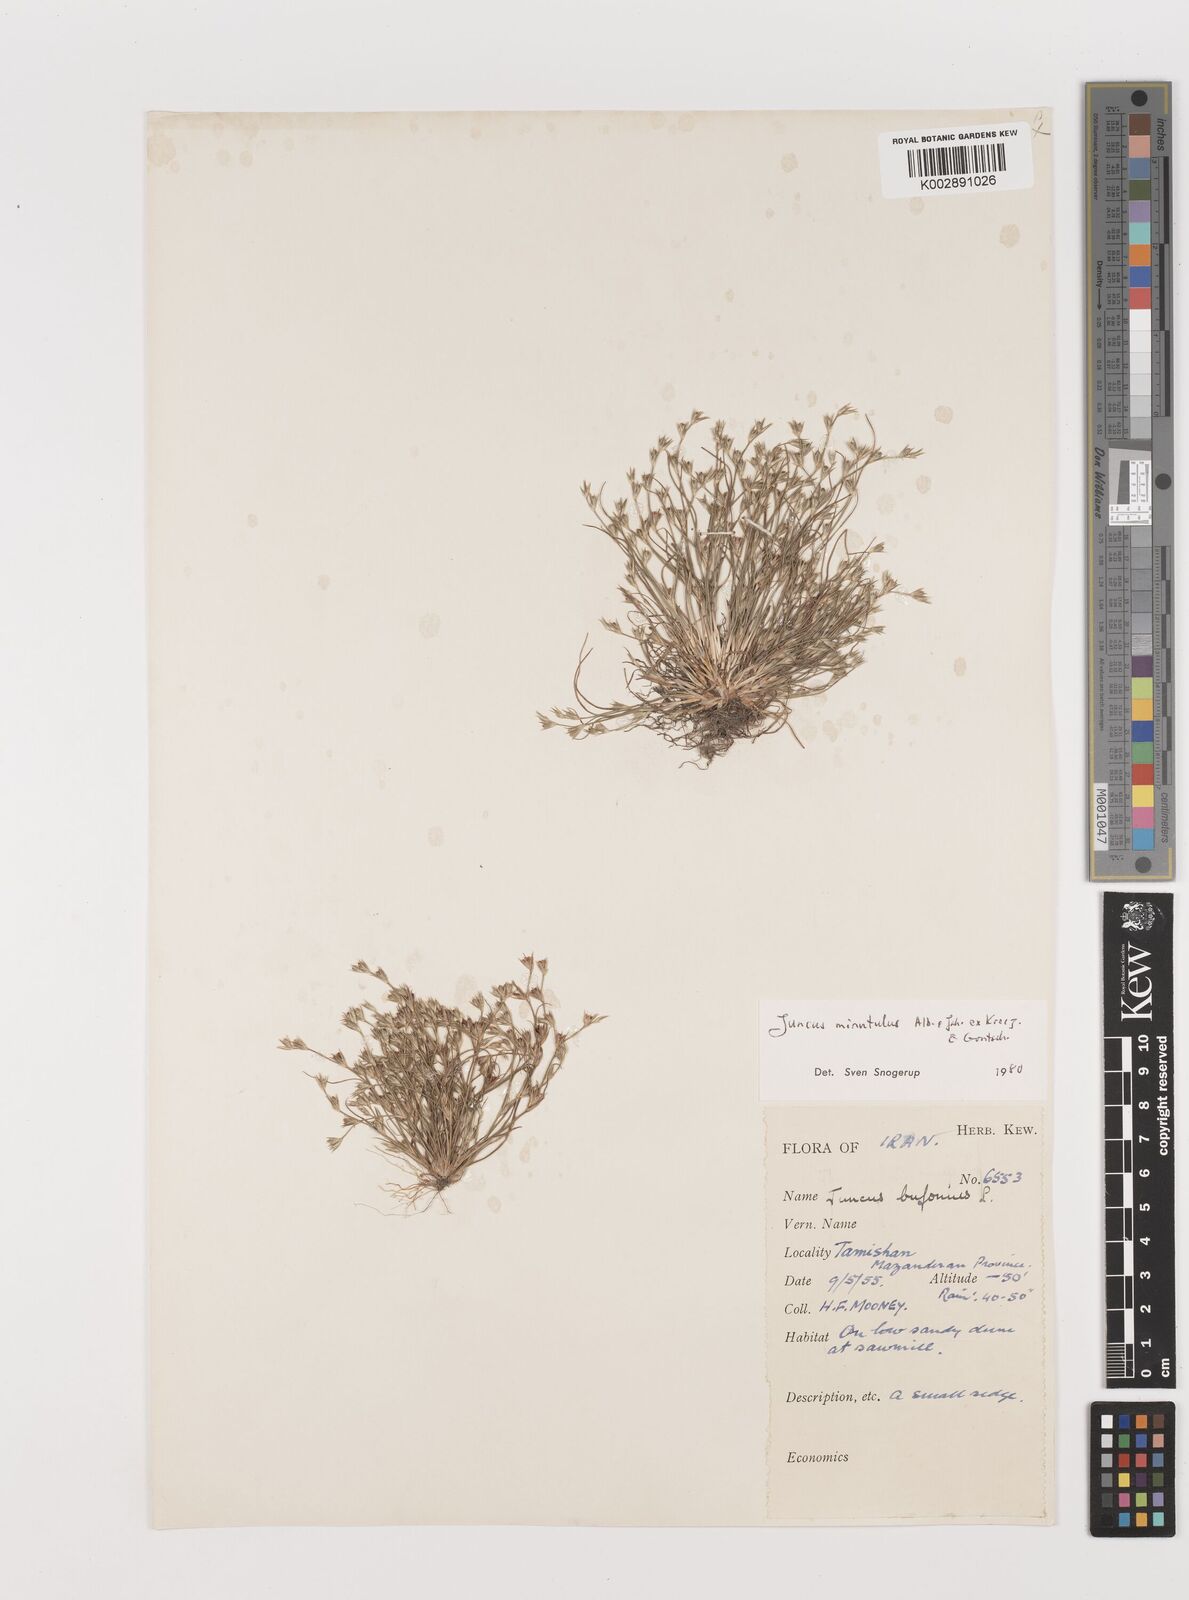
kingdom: Plantae
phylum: Tracheophyta
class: Liliopsida
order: Poales
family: Juncaceae
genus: Juncus
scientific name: Juncus bufonius
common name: Toad rush
